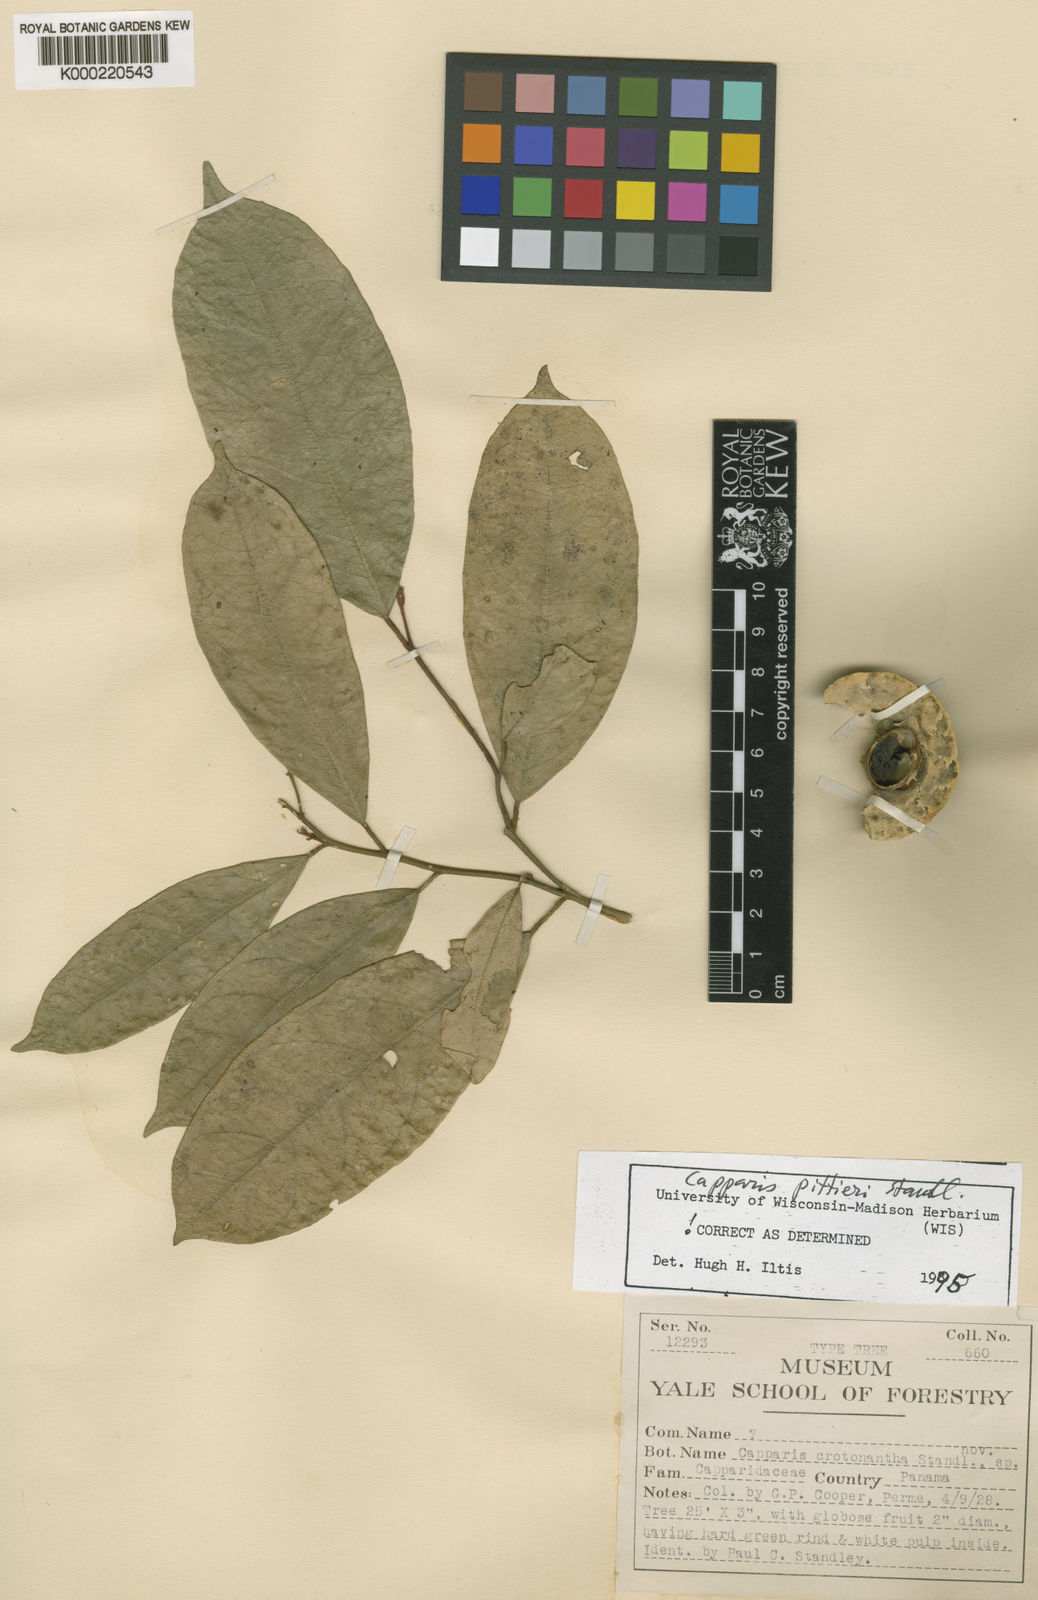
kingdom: Plantae
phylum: Tracheophyta
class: Magnoliopsida
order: Brassicales
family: Capparaceae
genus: Preslianthus
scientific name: Preslianthus pittieri
